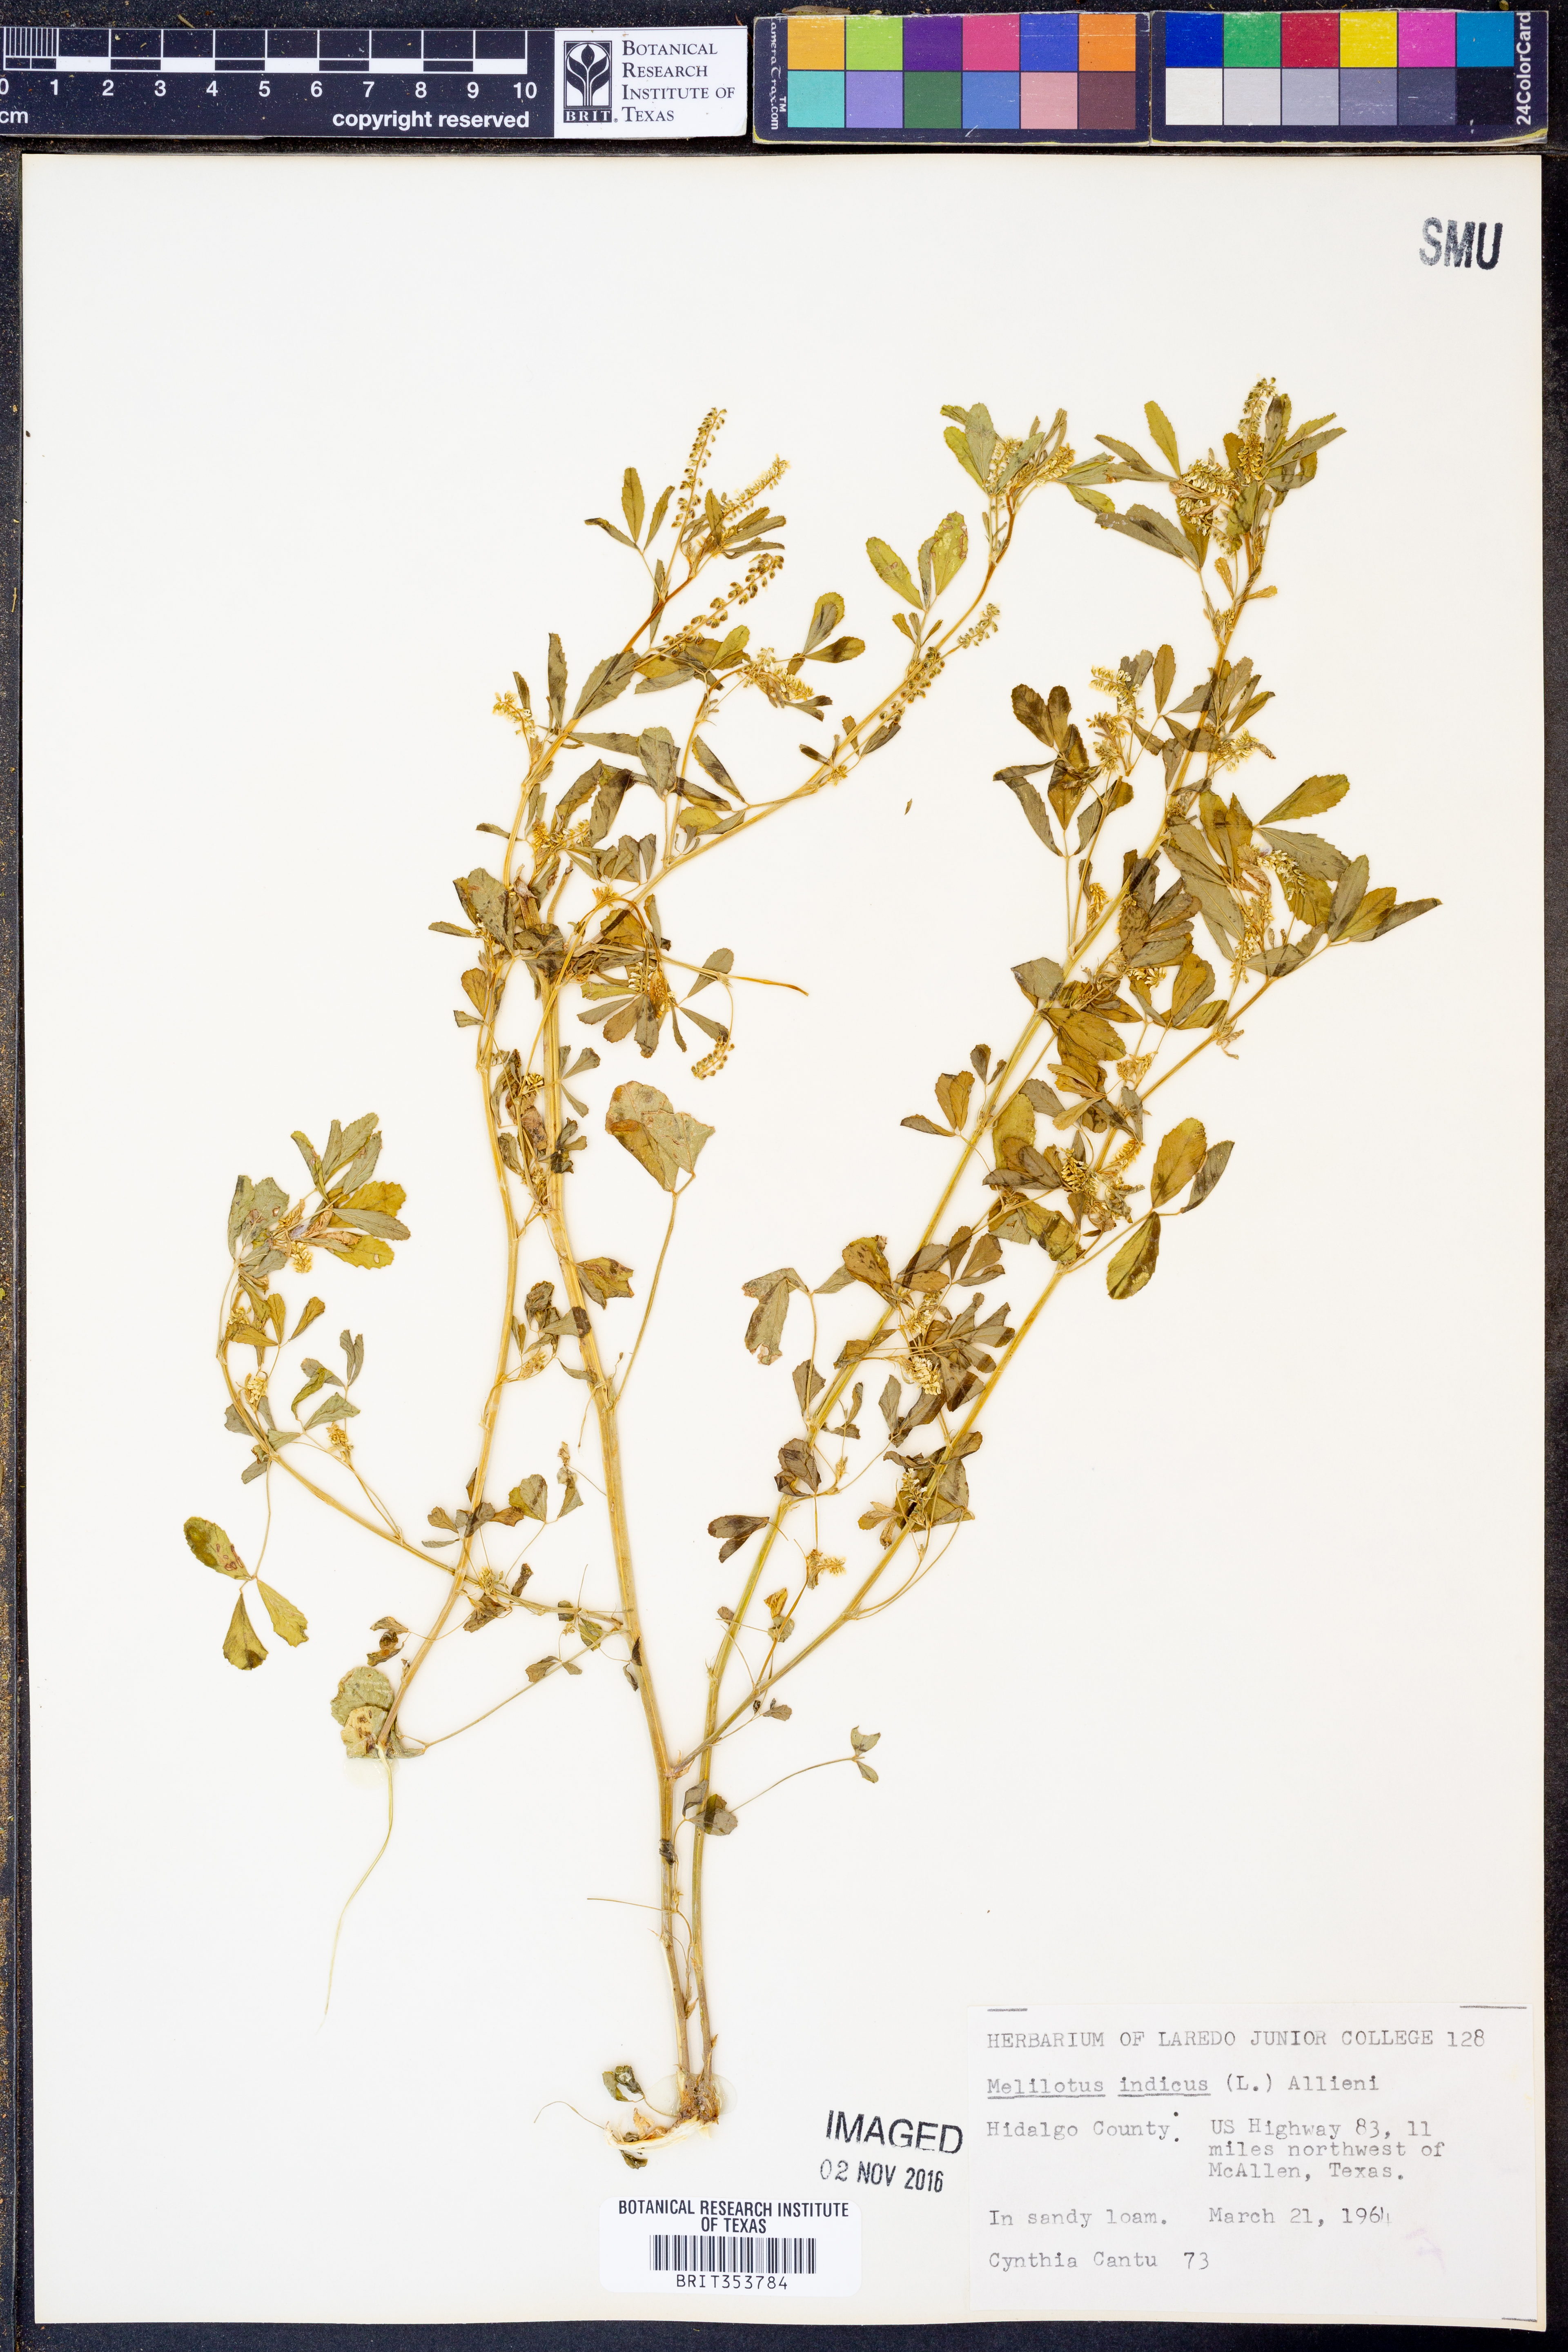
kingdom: Plantae
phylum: Tracheophyta
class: Magnoliopsida
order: Fabales
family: Fabaceae
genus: Melilotus
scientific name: Melilotus indicus
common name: Small melilot
